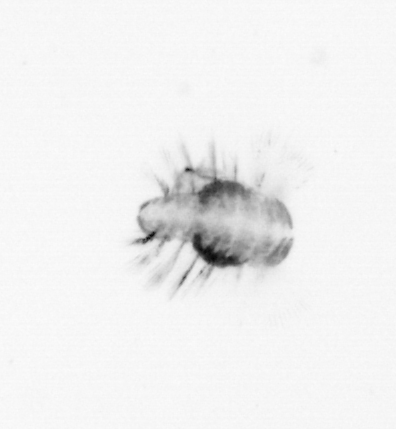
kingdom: Animalia
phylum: Annelida
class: Polychaeta
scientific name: Polychaeta
